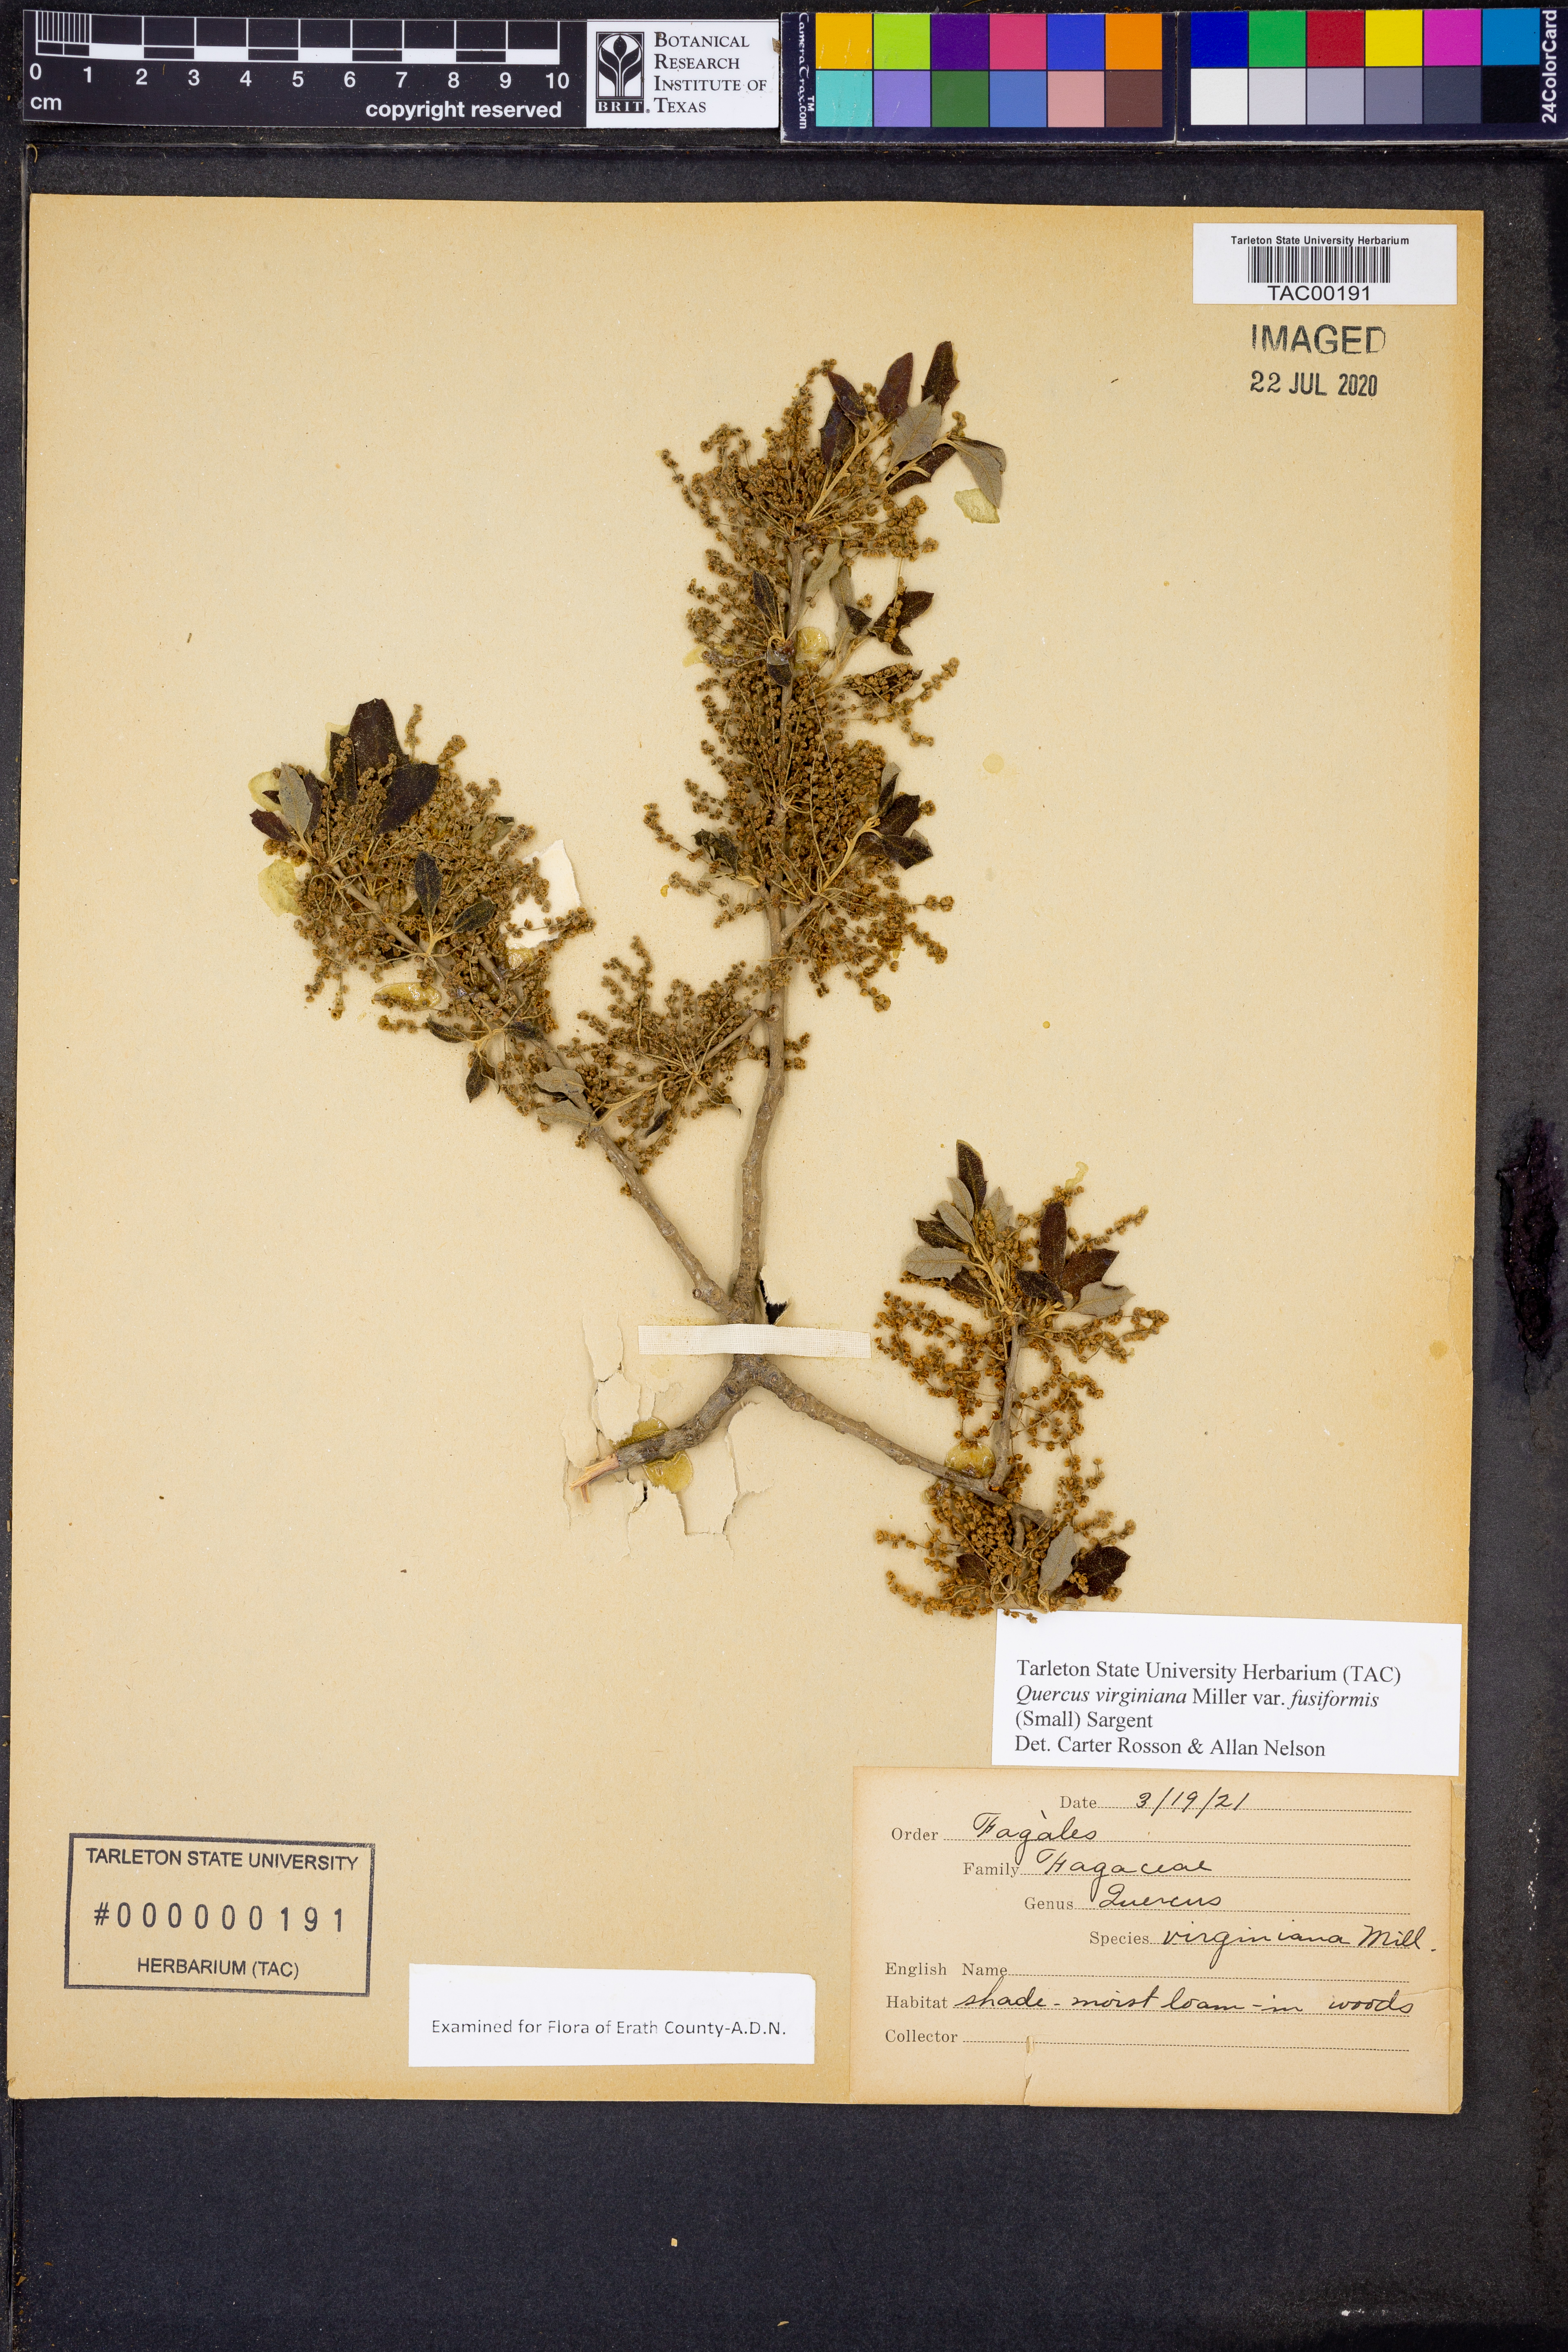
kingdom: Plantae
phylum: Tracheophyta
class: Magnoliopsida
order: Fagales
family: Fagaceae
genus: Quercus
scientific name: Quercus fusiformis
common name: Texas live oak
